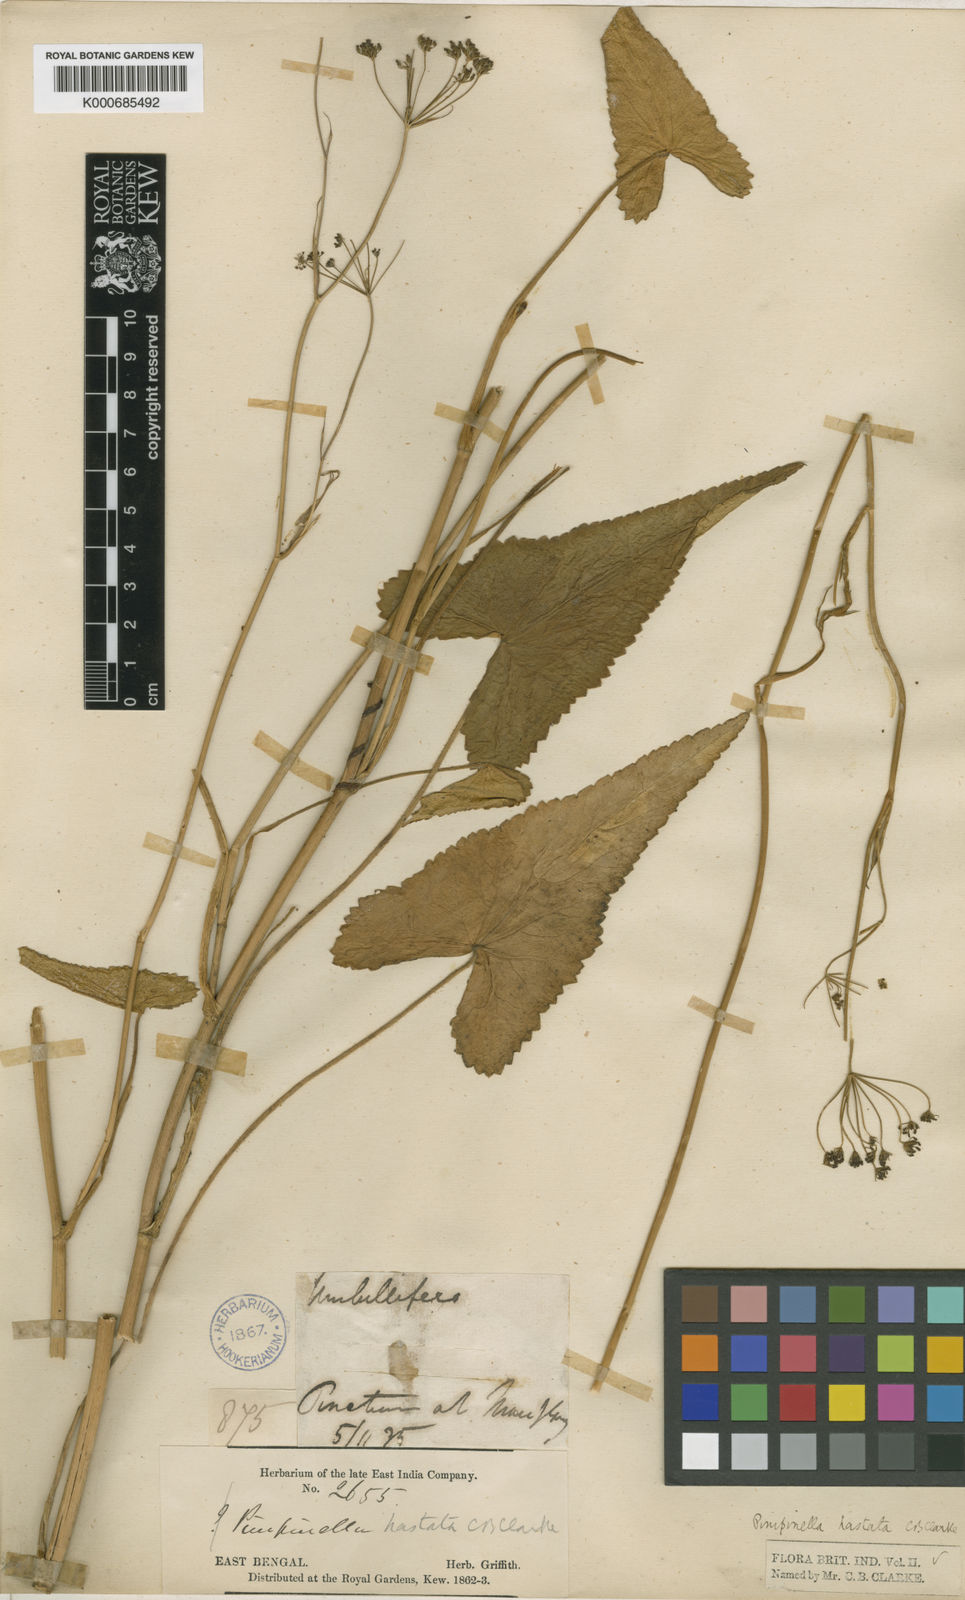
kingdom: Plantae
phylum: Tracheophyta
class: Magnoliopsida
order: Apiales
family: Apiaceae
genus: Pimpinella
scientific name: Pimpinella hastata
